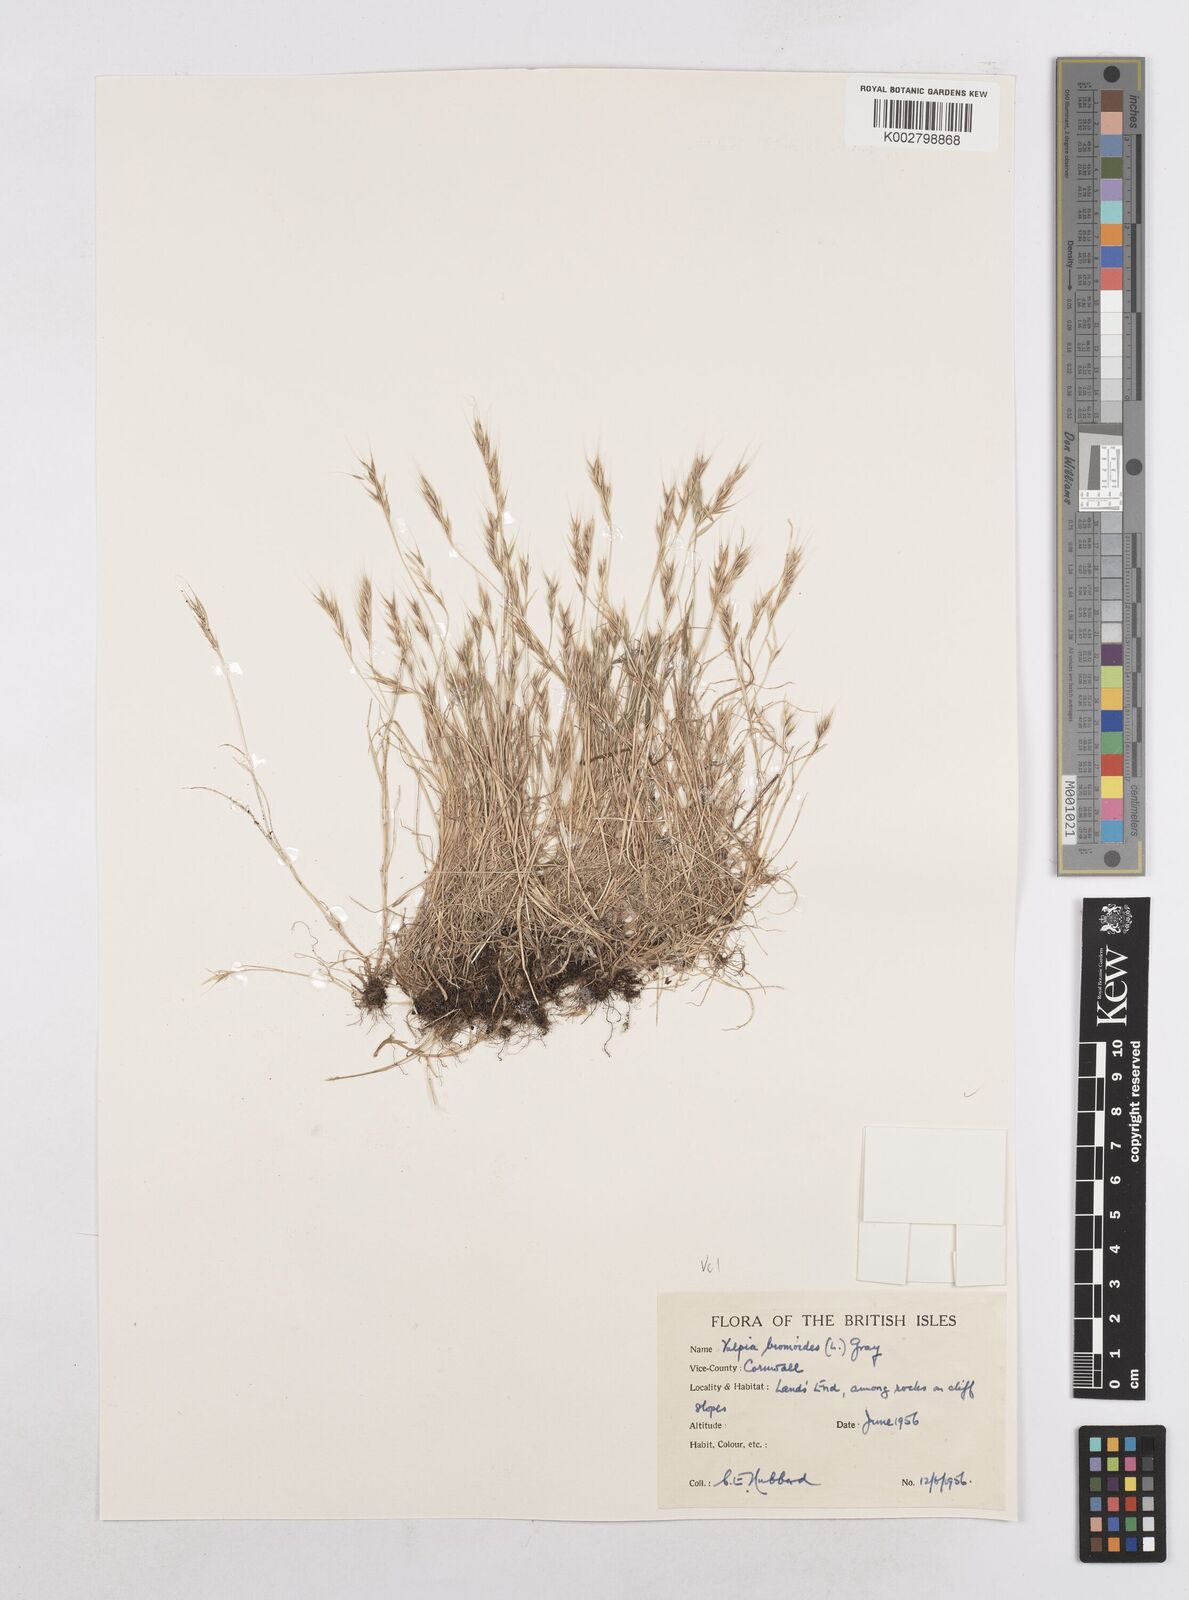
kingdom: Plantae
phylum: Tracheophyta
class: Liliopsida
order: Poales
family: Poaceae
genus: Festuca
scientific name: Festuca bromoides
